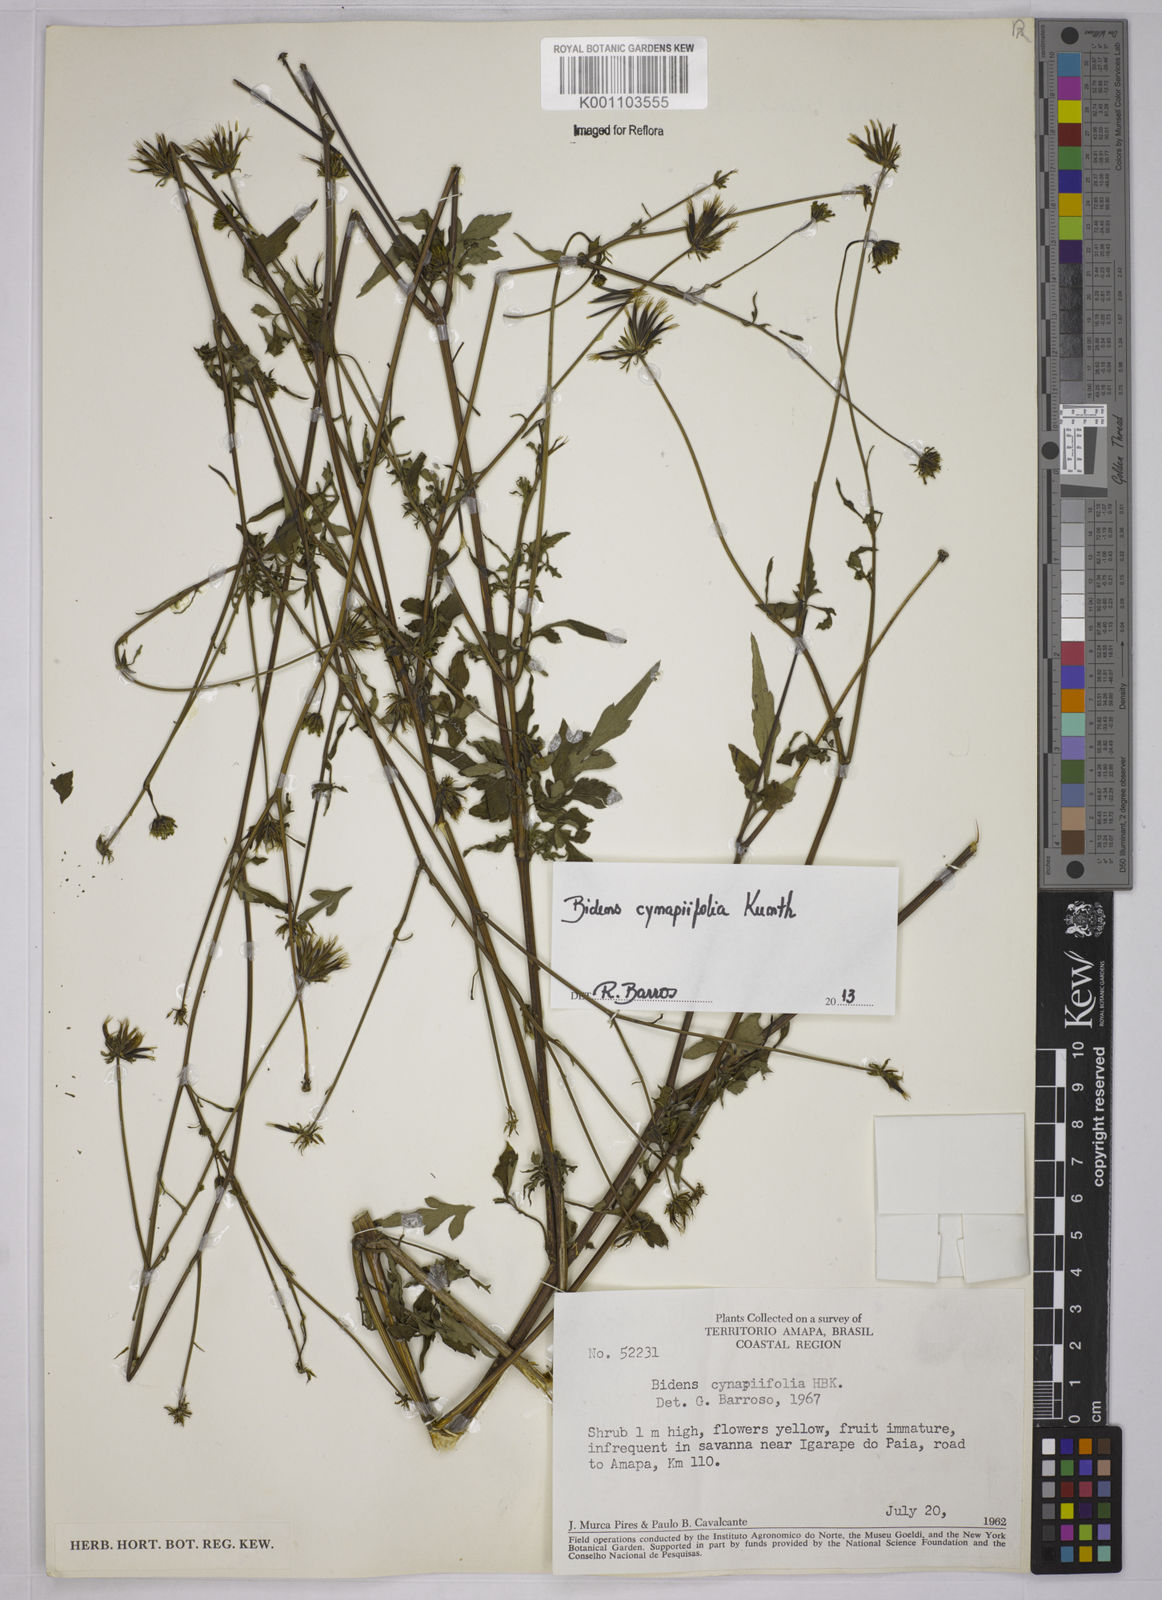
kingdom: Plantae
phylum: Tracheophyta
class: Magnoliopsida
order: Asterales
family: Asteraceae
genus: Bidens
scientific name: Bidens cynapiifolia
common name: Beggar's tick
